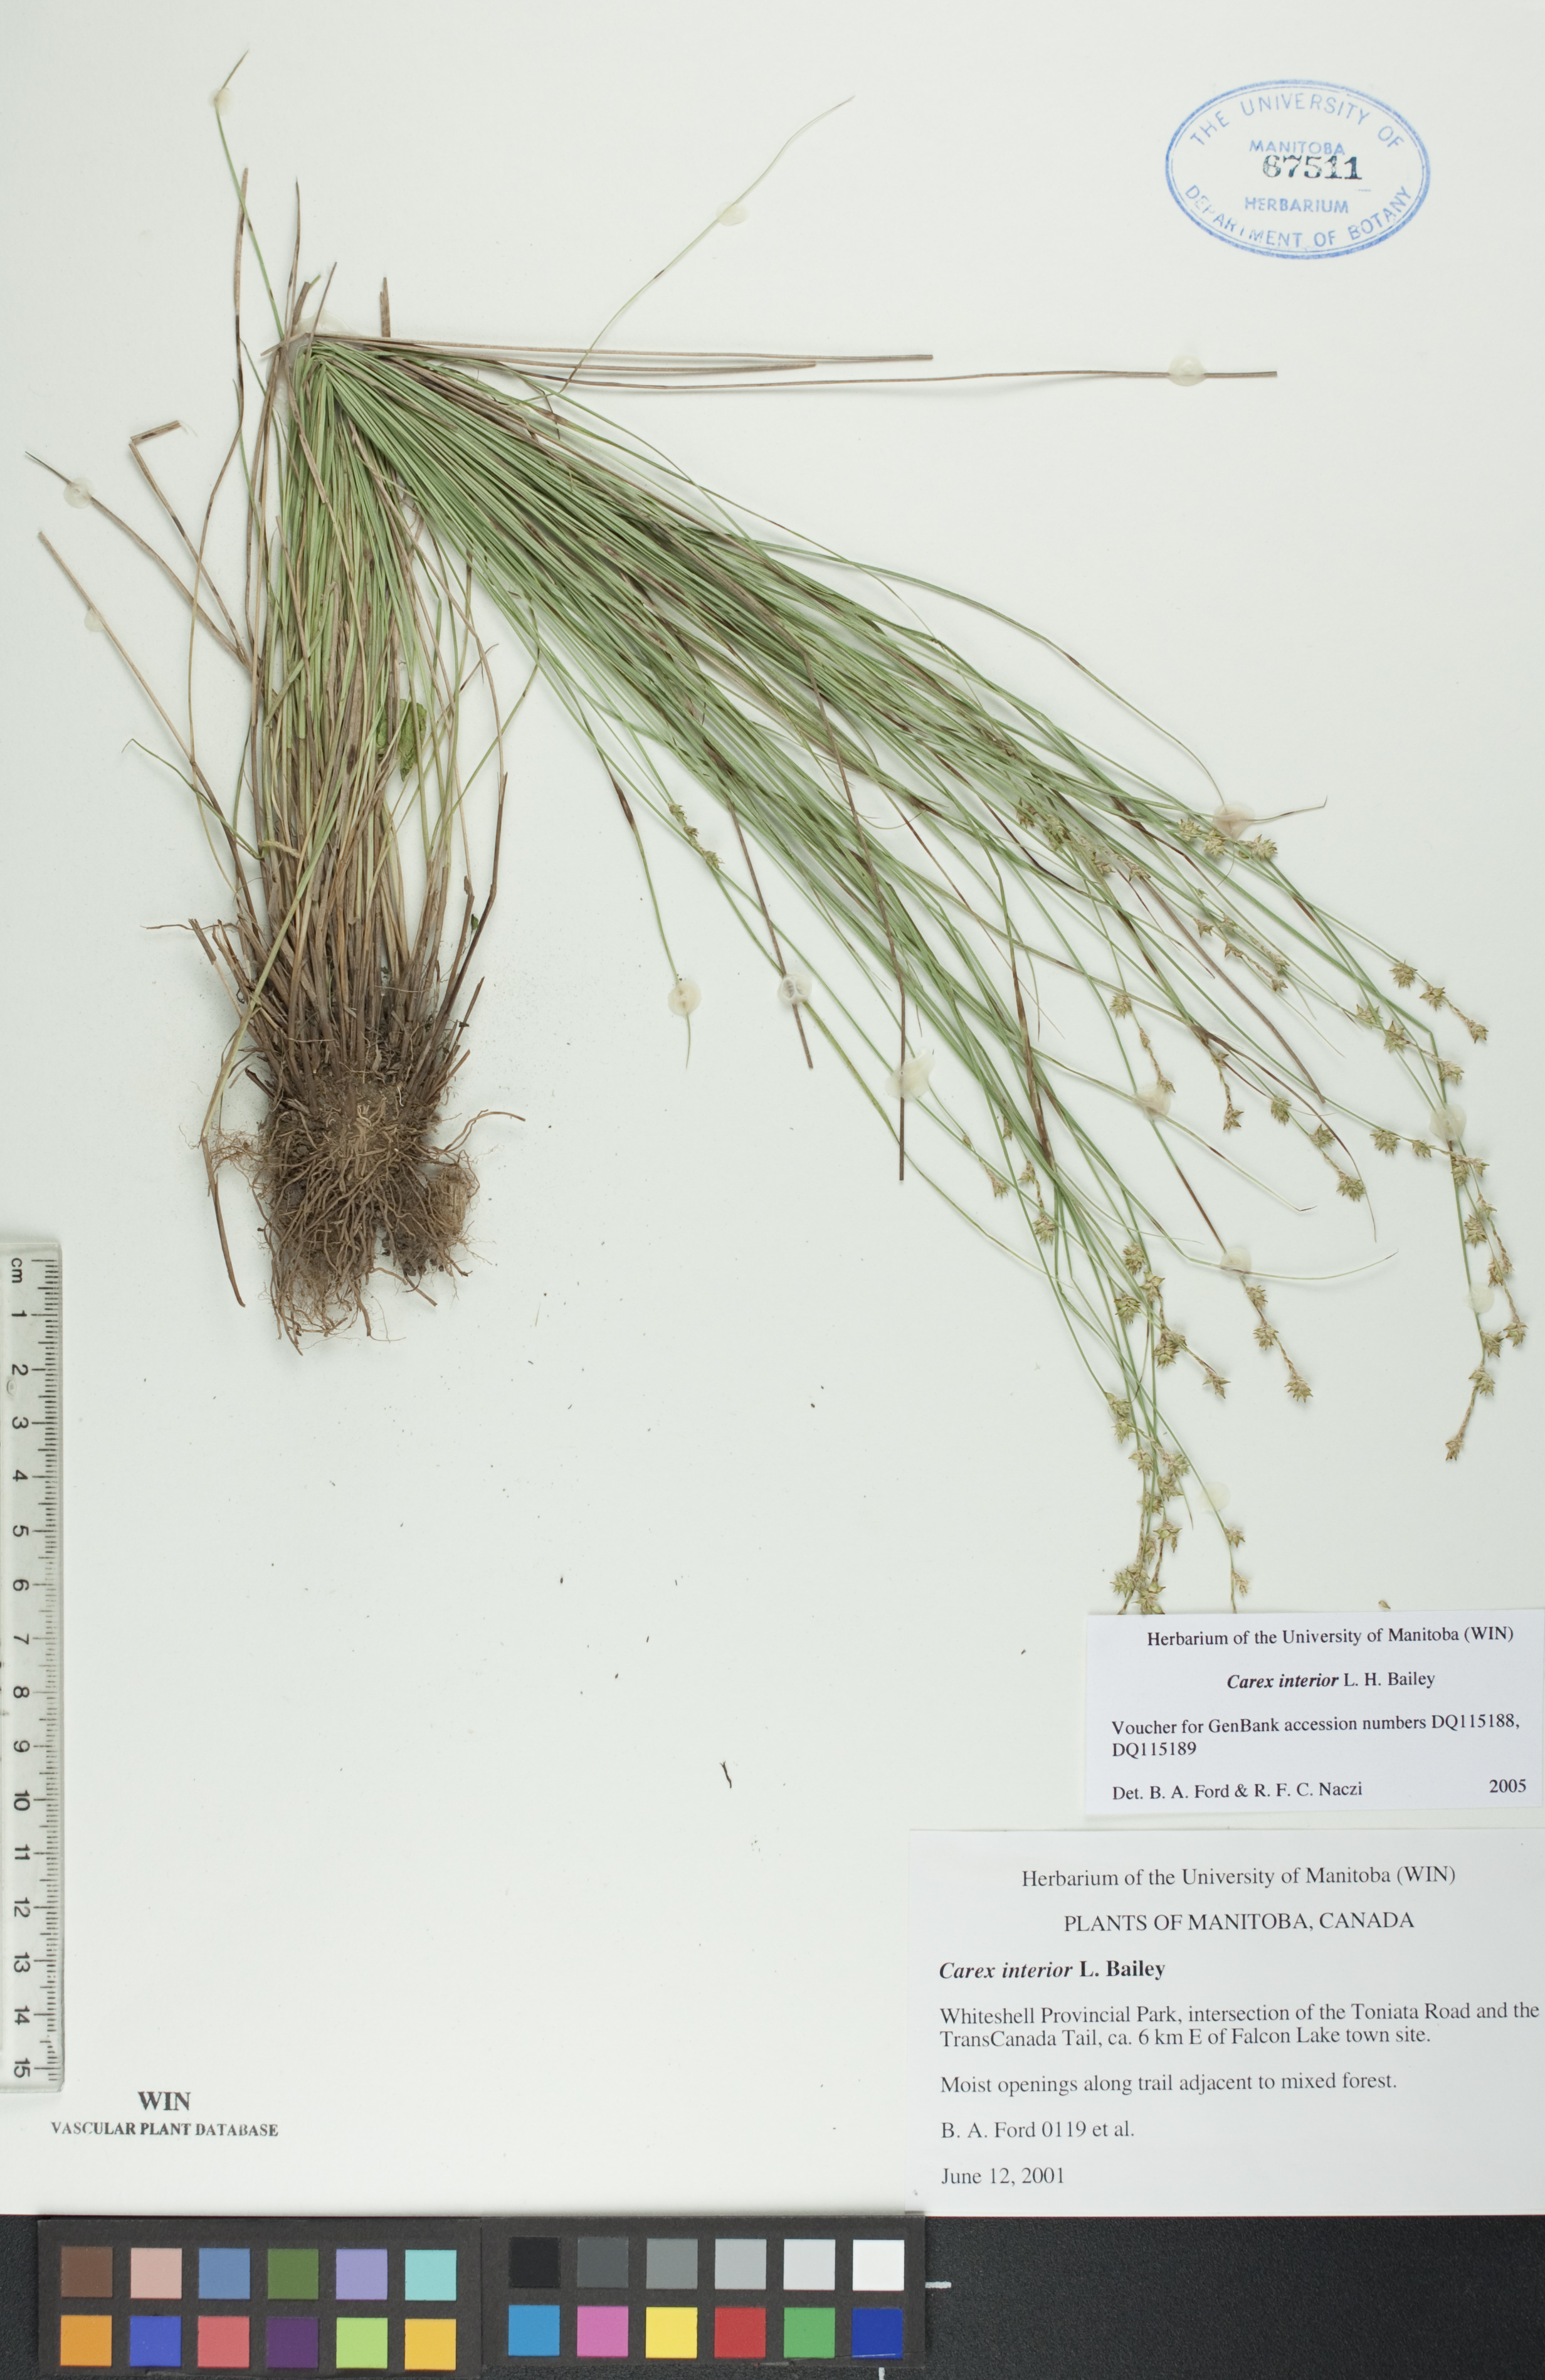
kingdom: Plantae
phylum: Tracheophyta
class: Liliopsida
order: Poales
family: Cyperaceae
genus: Carex
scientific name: Carex interior
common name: Inland sedge
